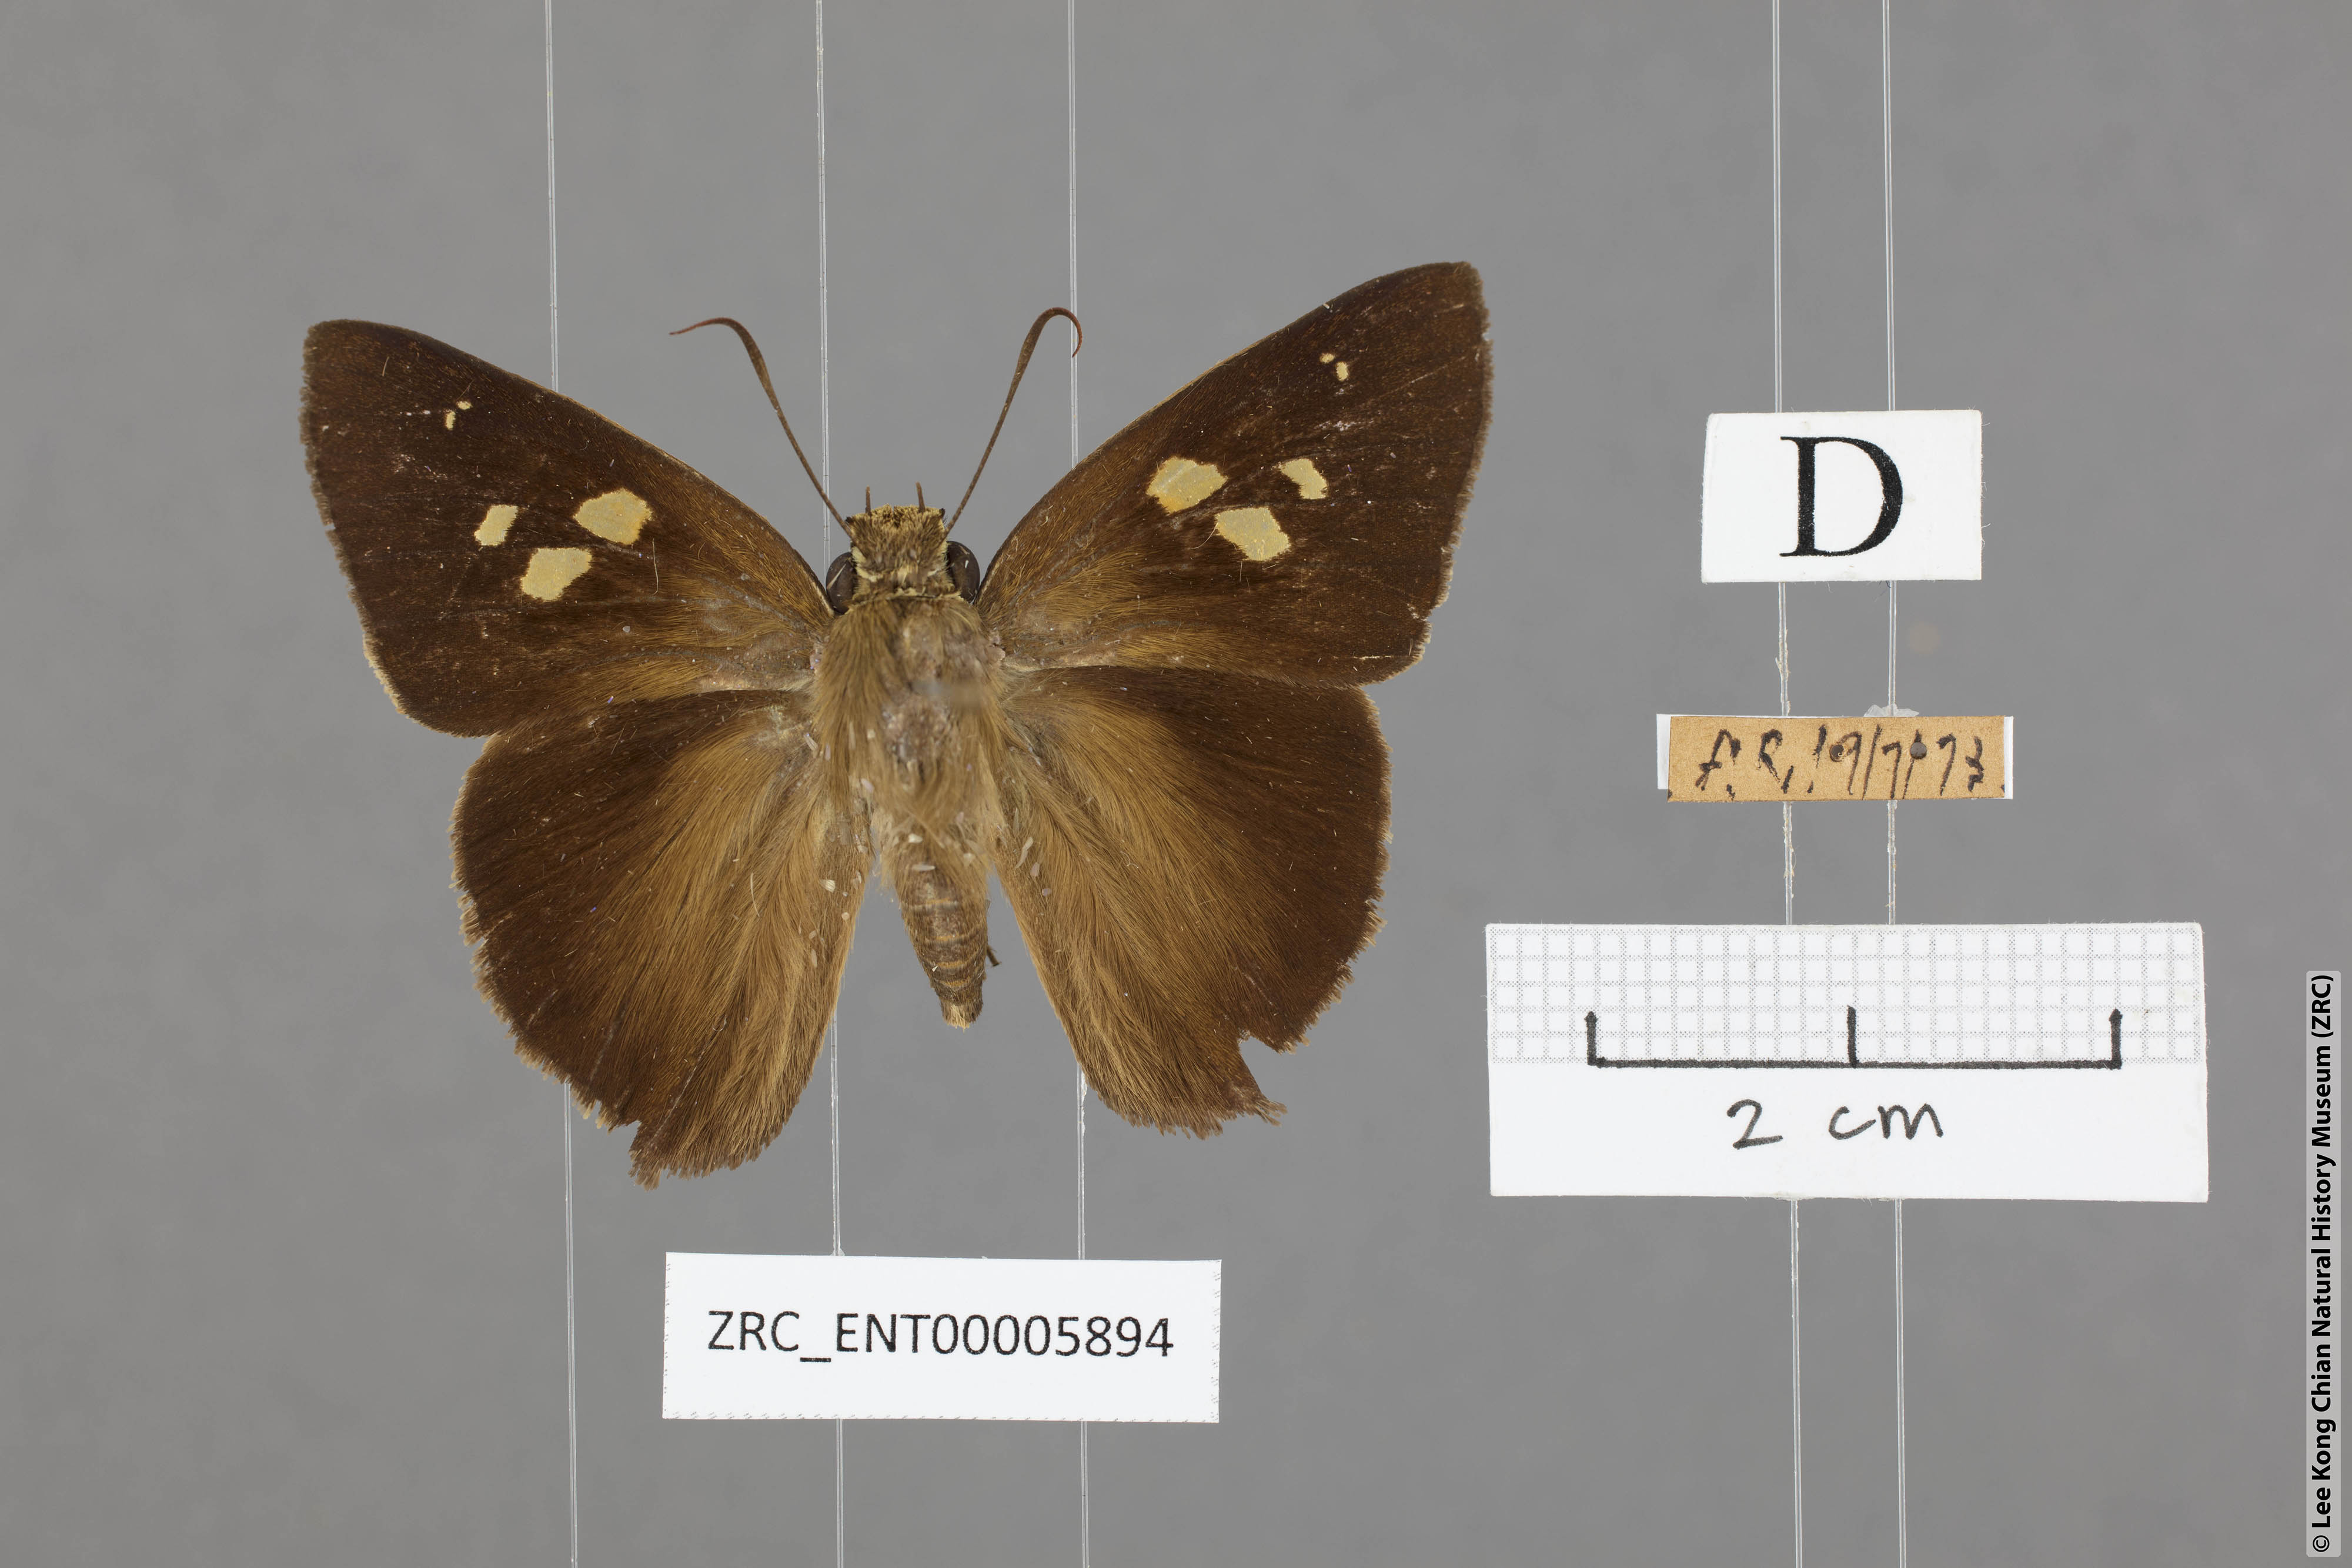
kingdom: Animalia
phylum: Arthropoda
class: Insecta
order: Lepidoptera
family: Hesperiidae
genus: Hasora
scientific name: Hasora quadripunctata
